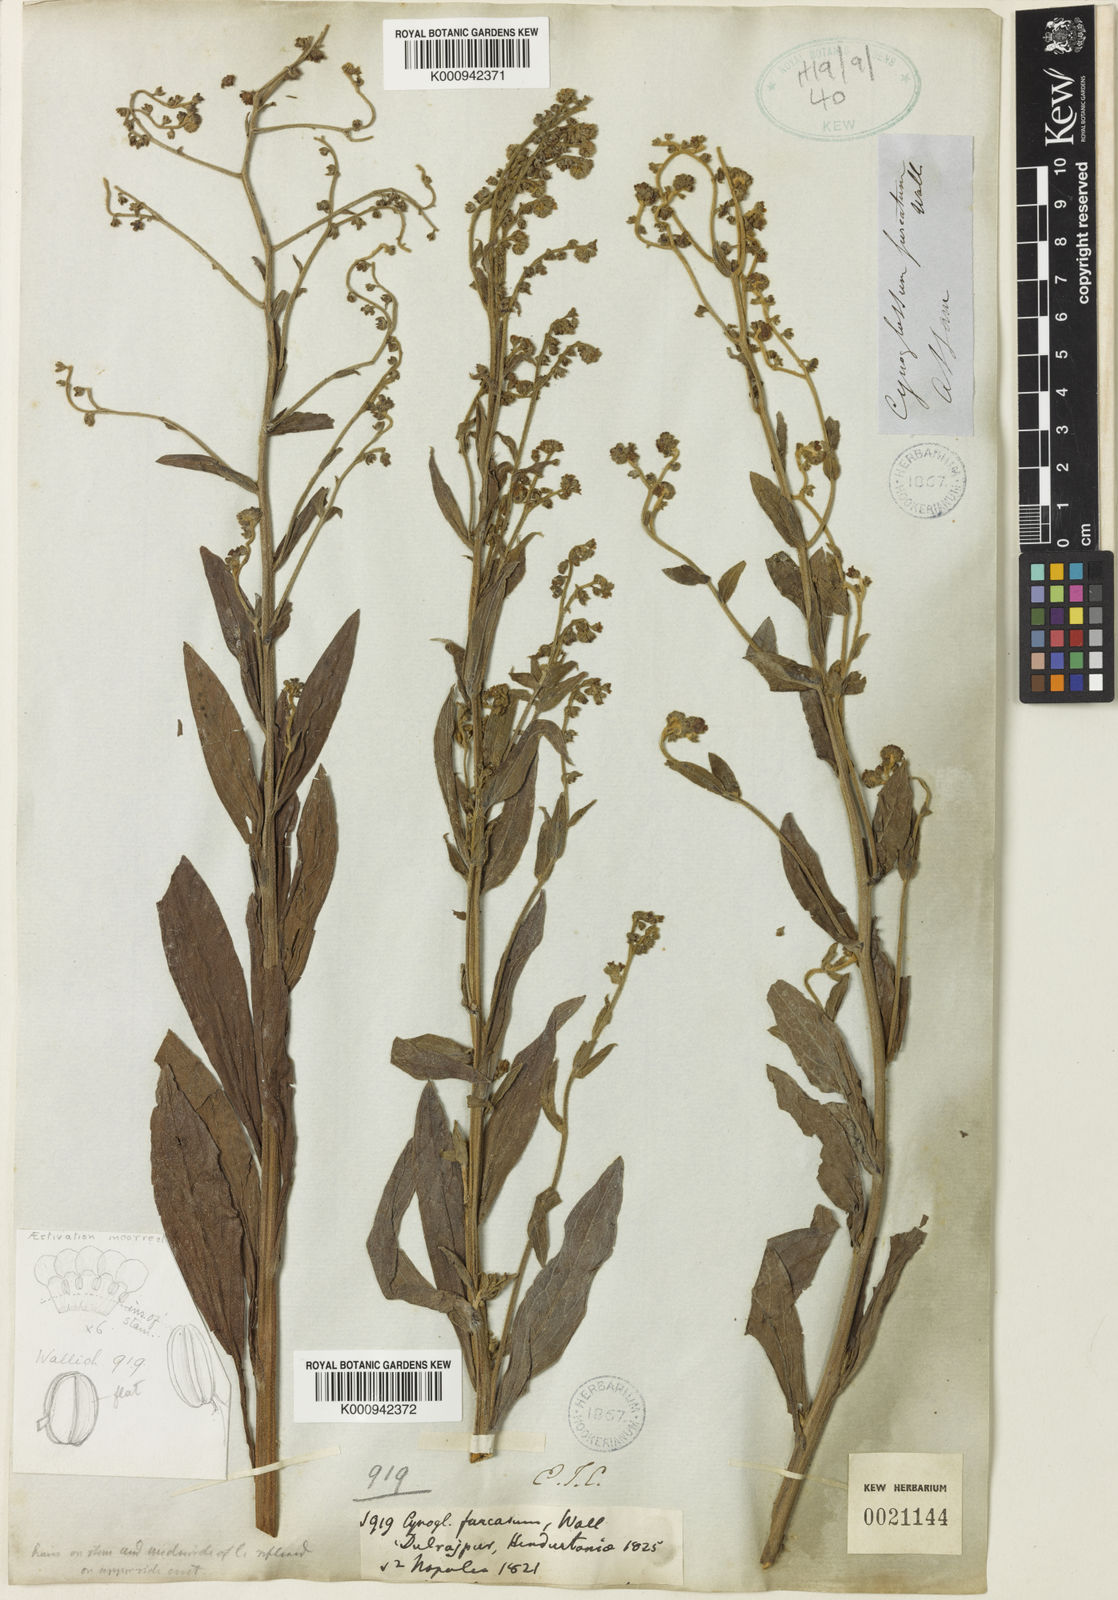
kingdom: Plantae
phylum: Tracheophyta
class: Magnoliopsida
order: Boraginales
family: Boraginaceae
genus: Rochelia
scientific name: Rochelia zeylanica
